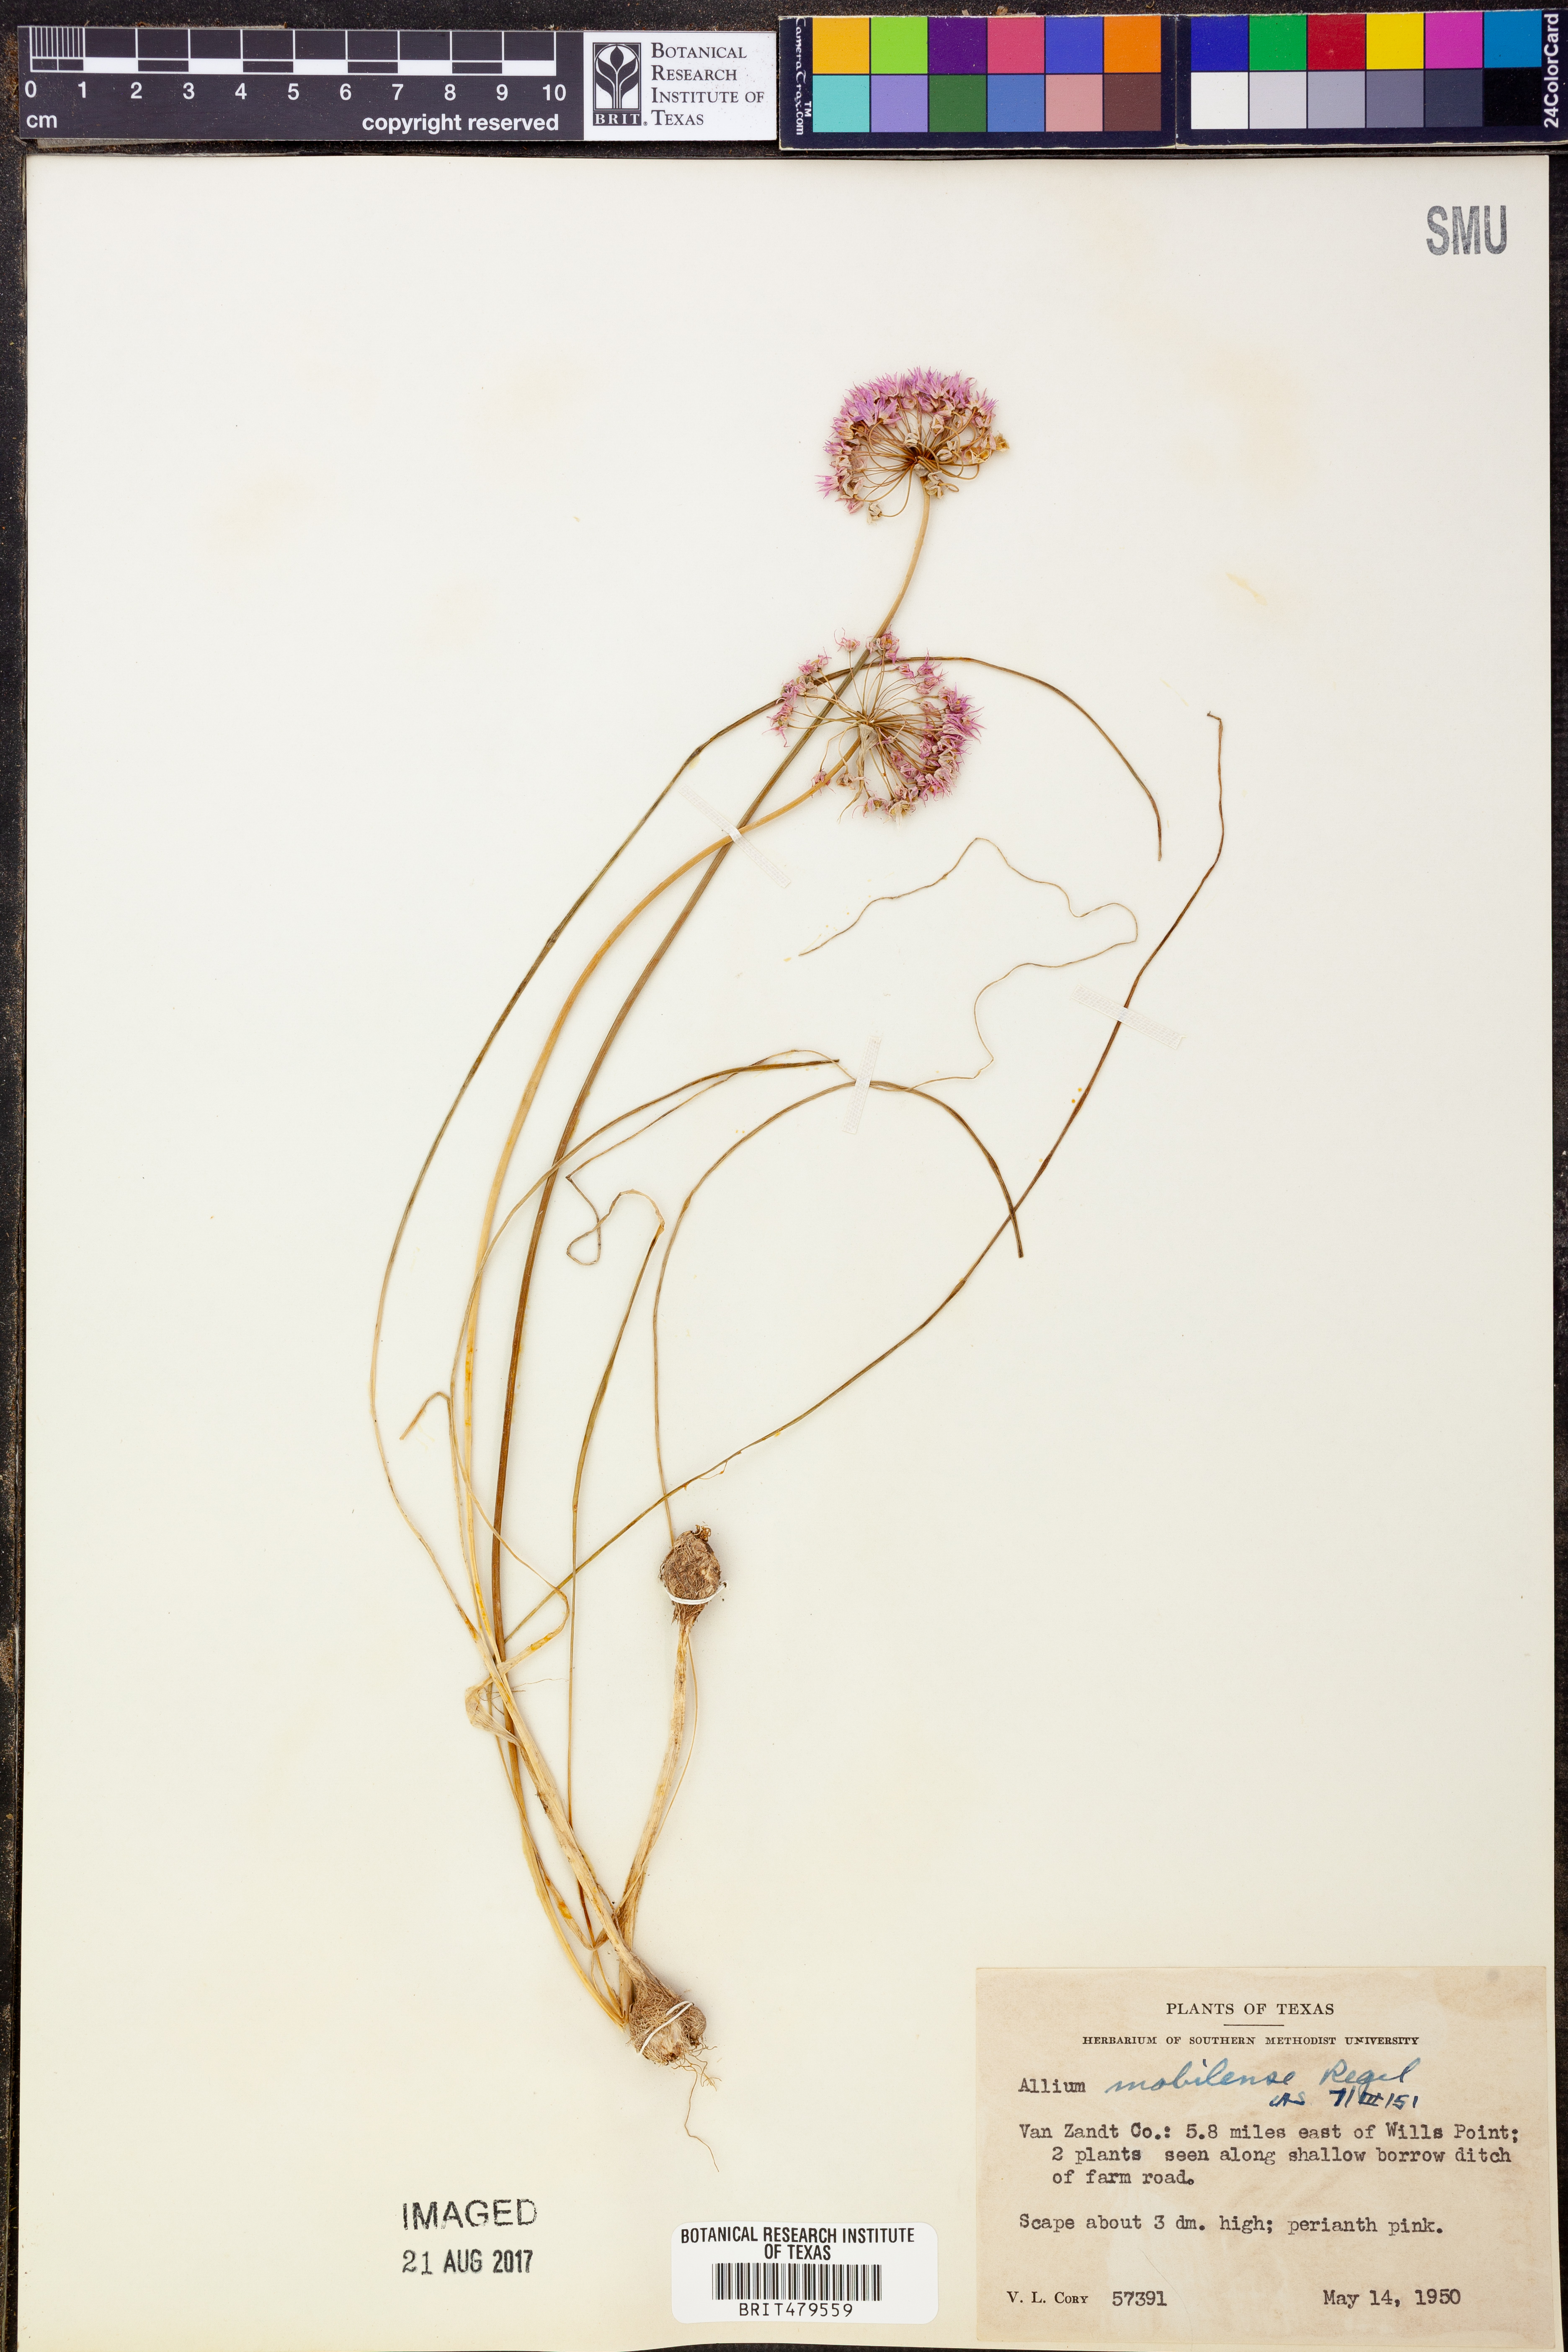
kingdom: Plantae
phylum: Tracheophyta
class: Liliopsida
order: Asparagales
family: Amaryllidaceae
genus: Allium
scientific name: Allium canadense
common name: Meadow garlic
